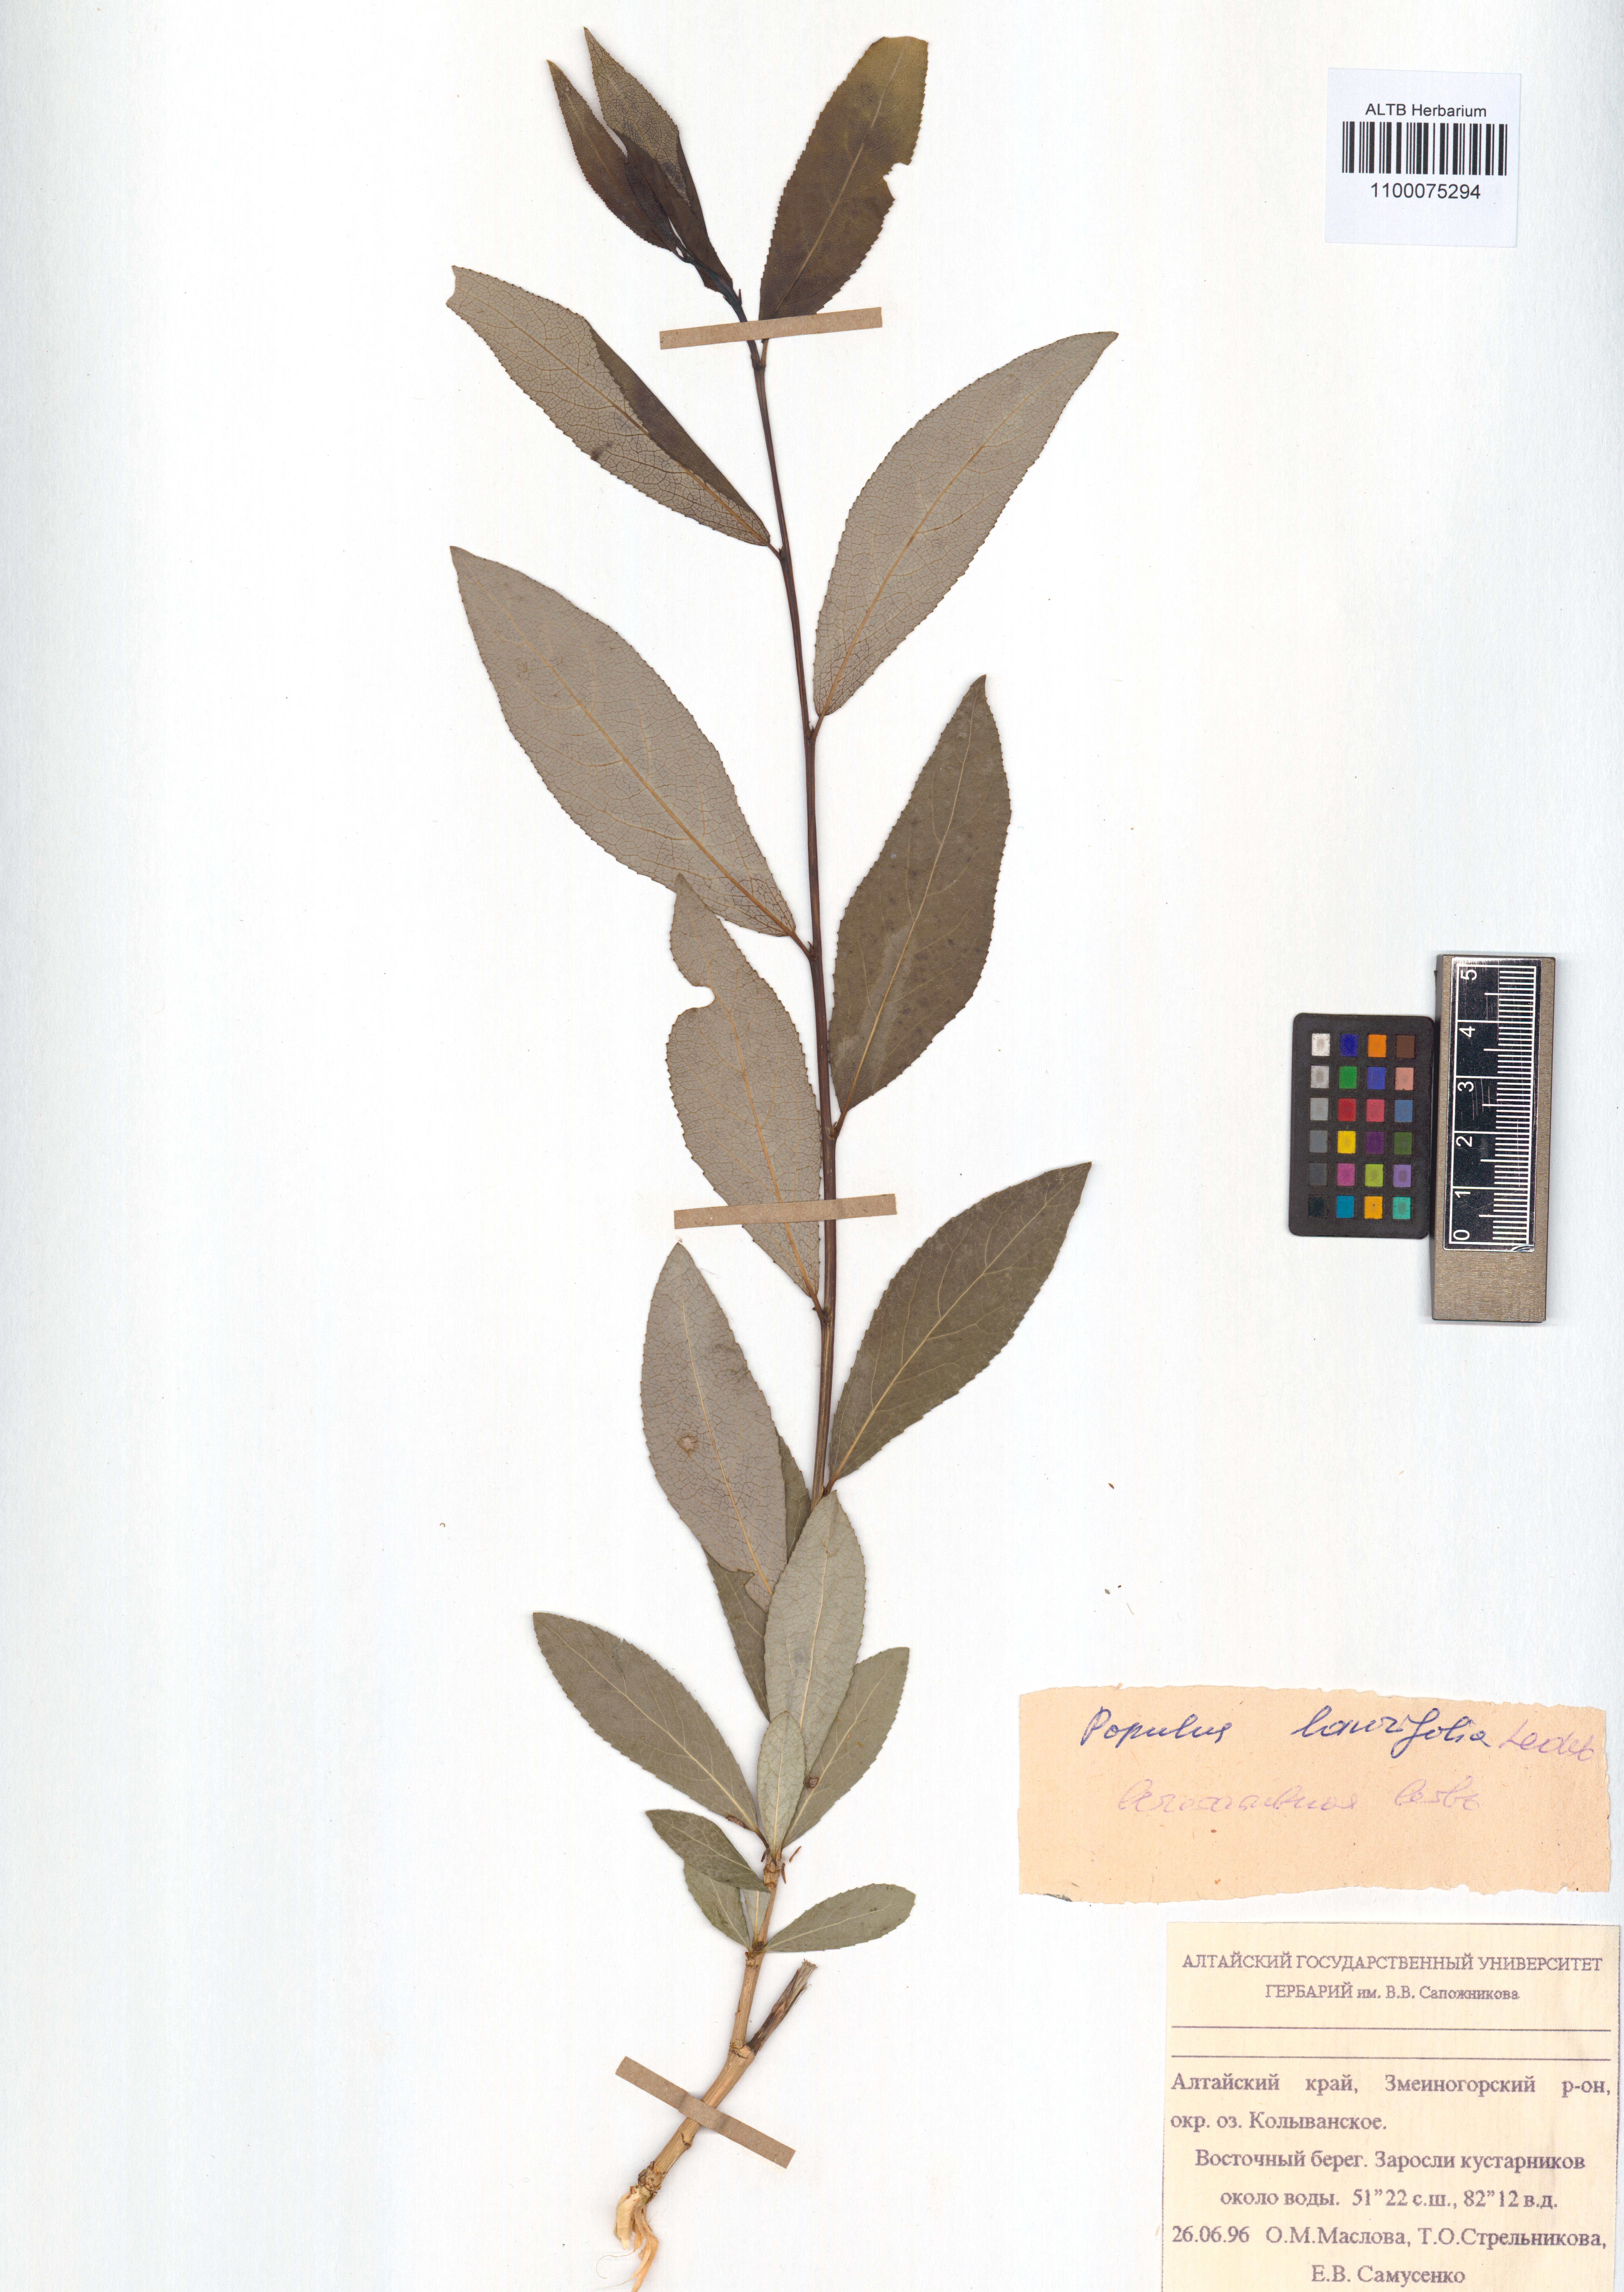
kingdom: Plantae
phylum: Tracheophyta
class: Magnoliopsida
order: Malpighiales
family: Salicaceae
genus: Populus
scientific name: Populus laurifolia
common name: Laurel-leaf poplar
